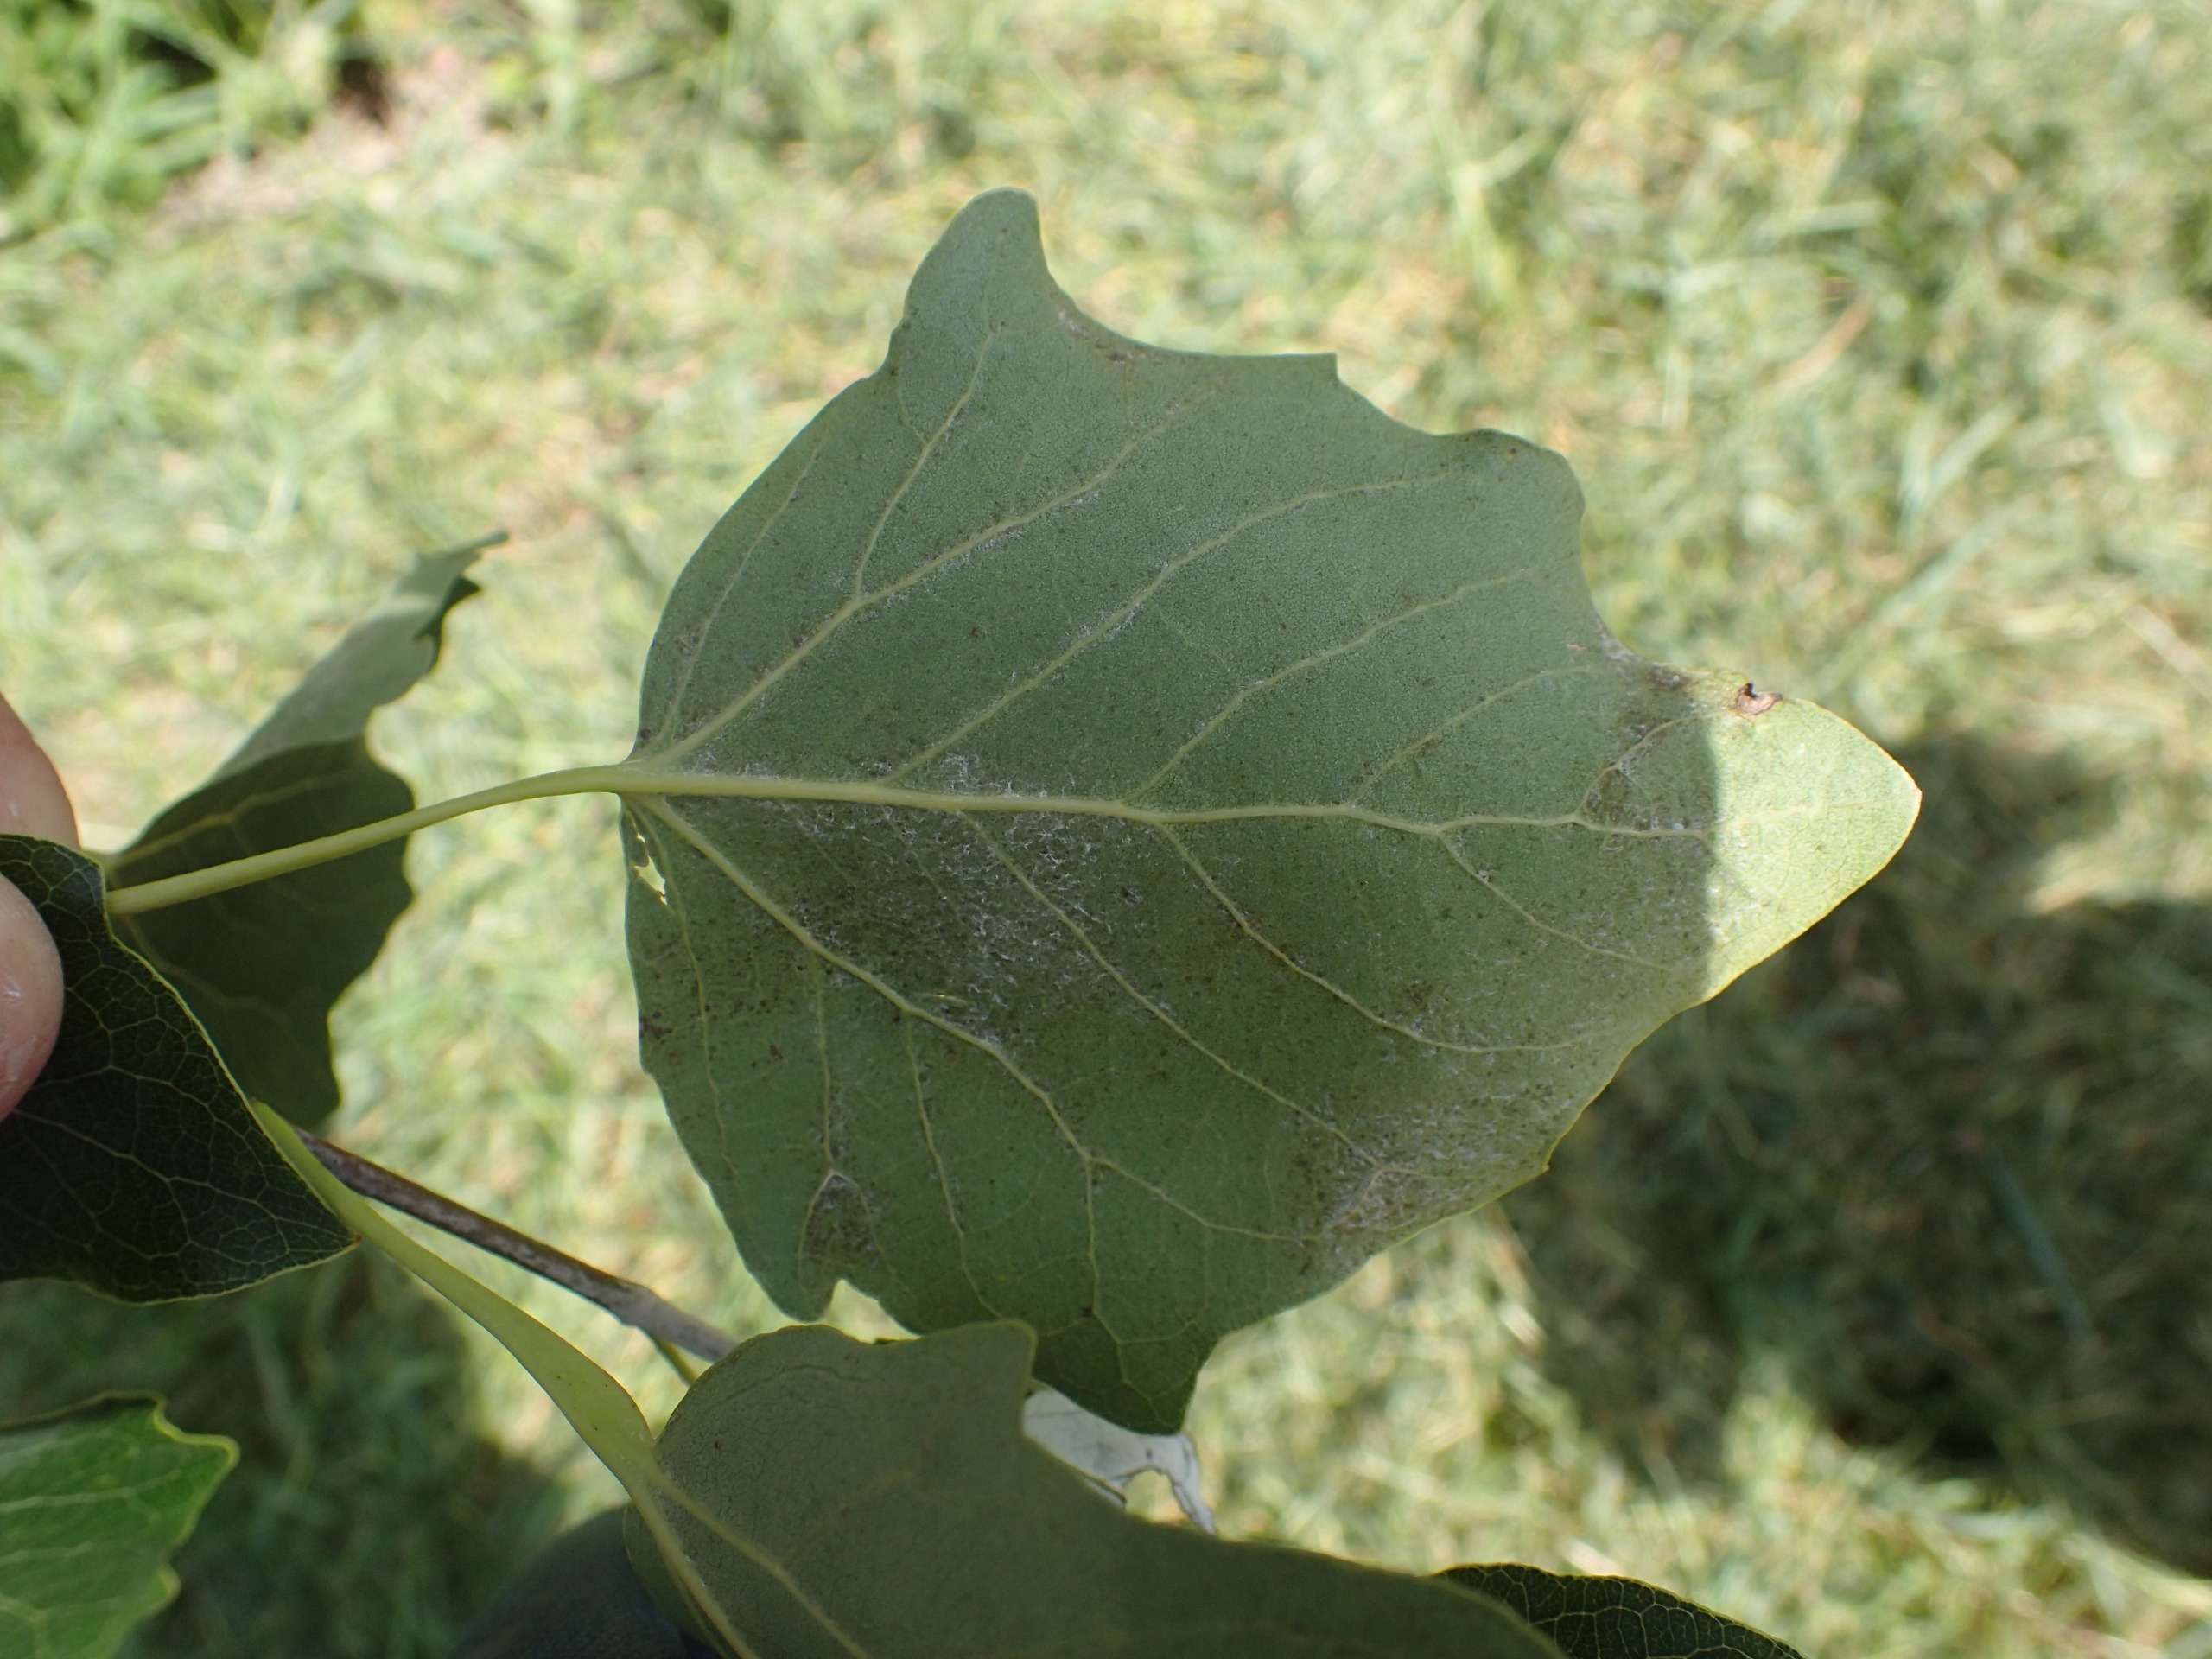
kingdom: Plantae
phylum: Tracheophyta
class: Magnoliopsida
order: Malpighiales
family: Salicaceae
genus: Populus
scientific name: Populus canescens
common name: Grå-poppel
